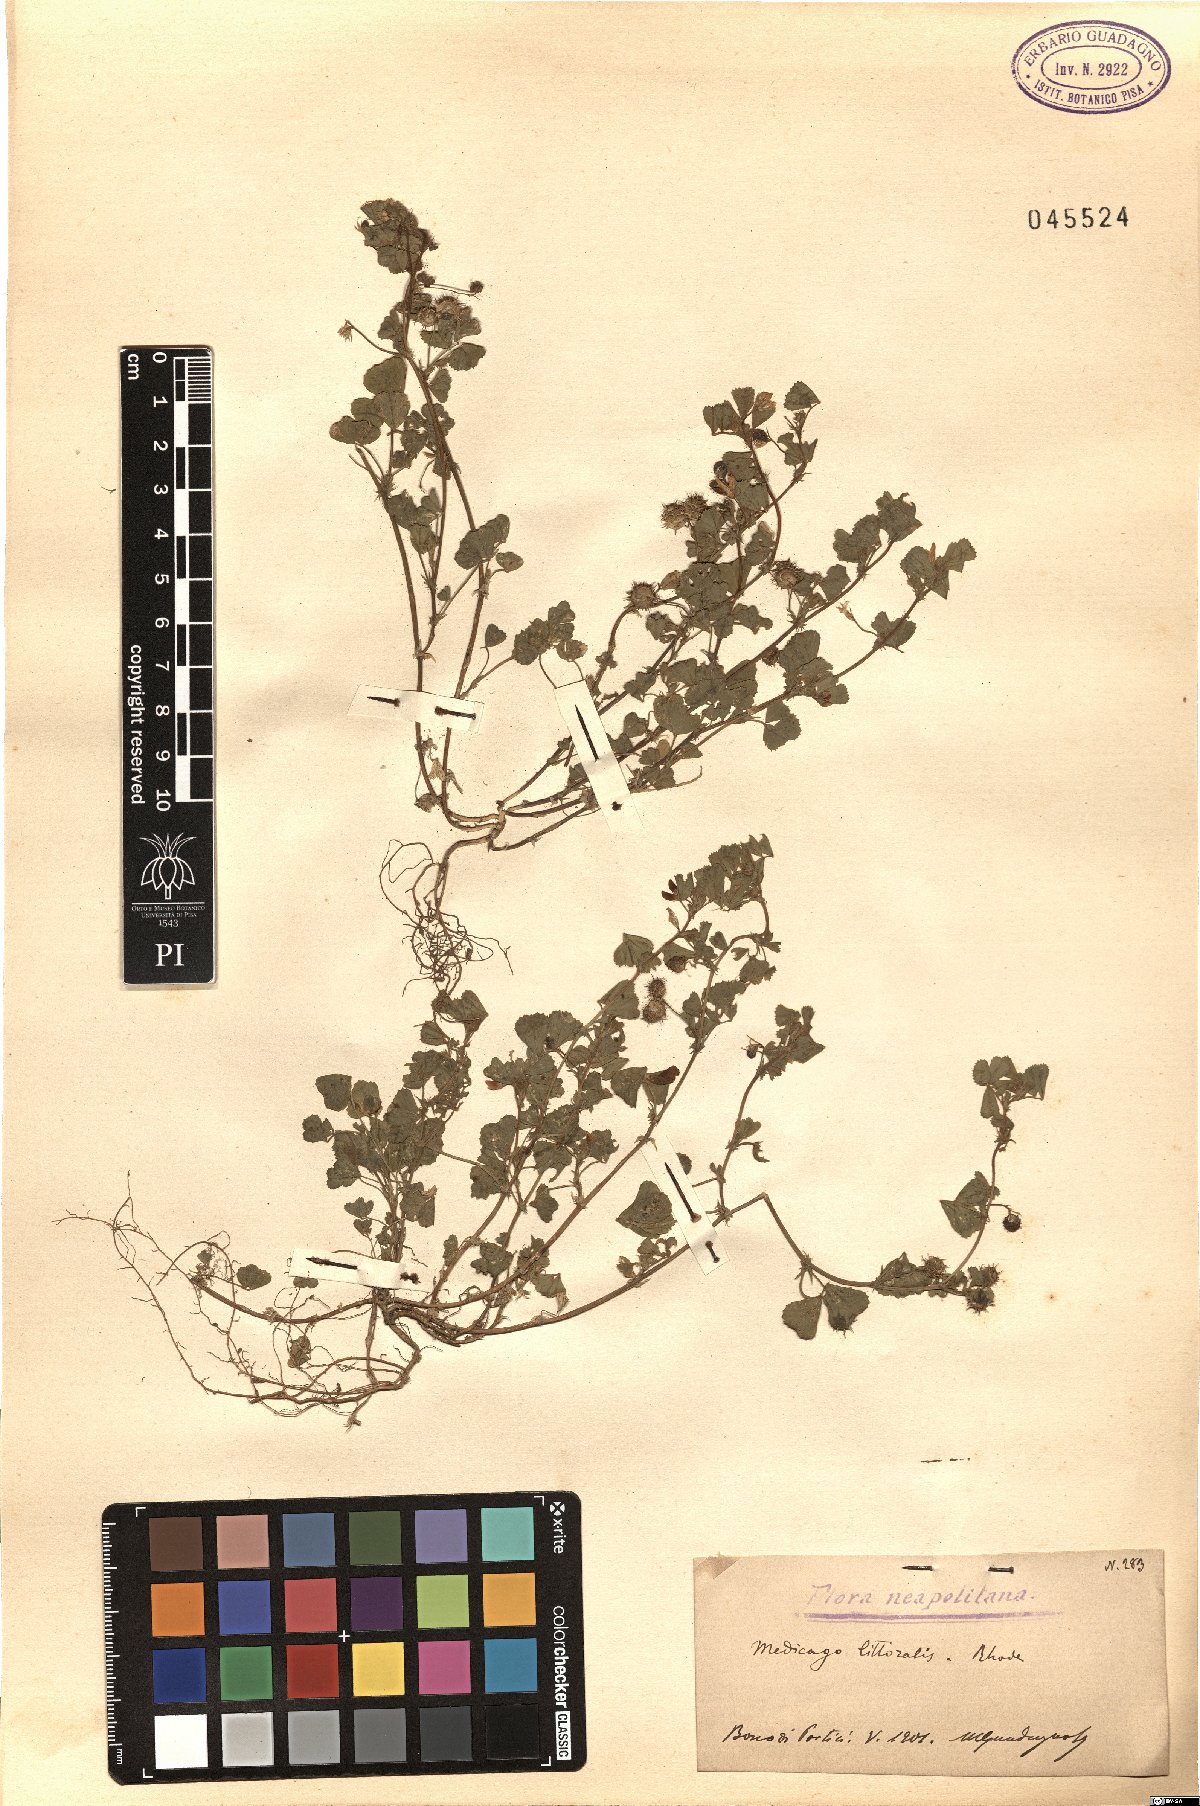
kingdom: Plantae
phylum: Tracheophyta
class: Magnoliopsida
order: Fabales
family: Fabaceae
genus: Medicago
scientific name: Medicago littoralis
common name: Shore medick
